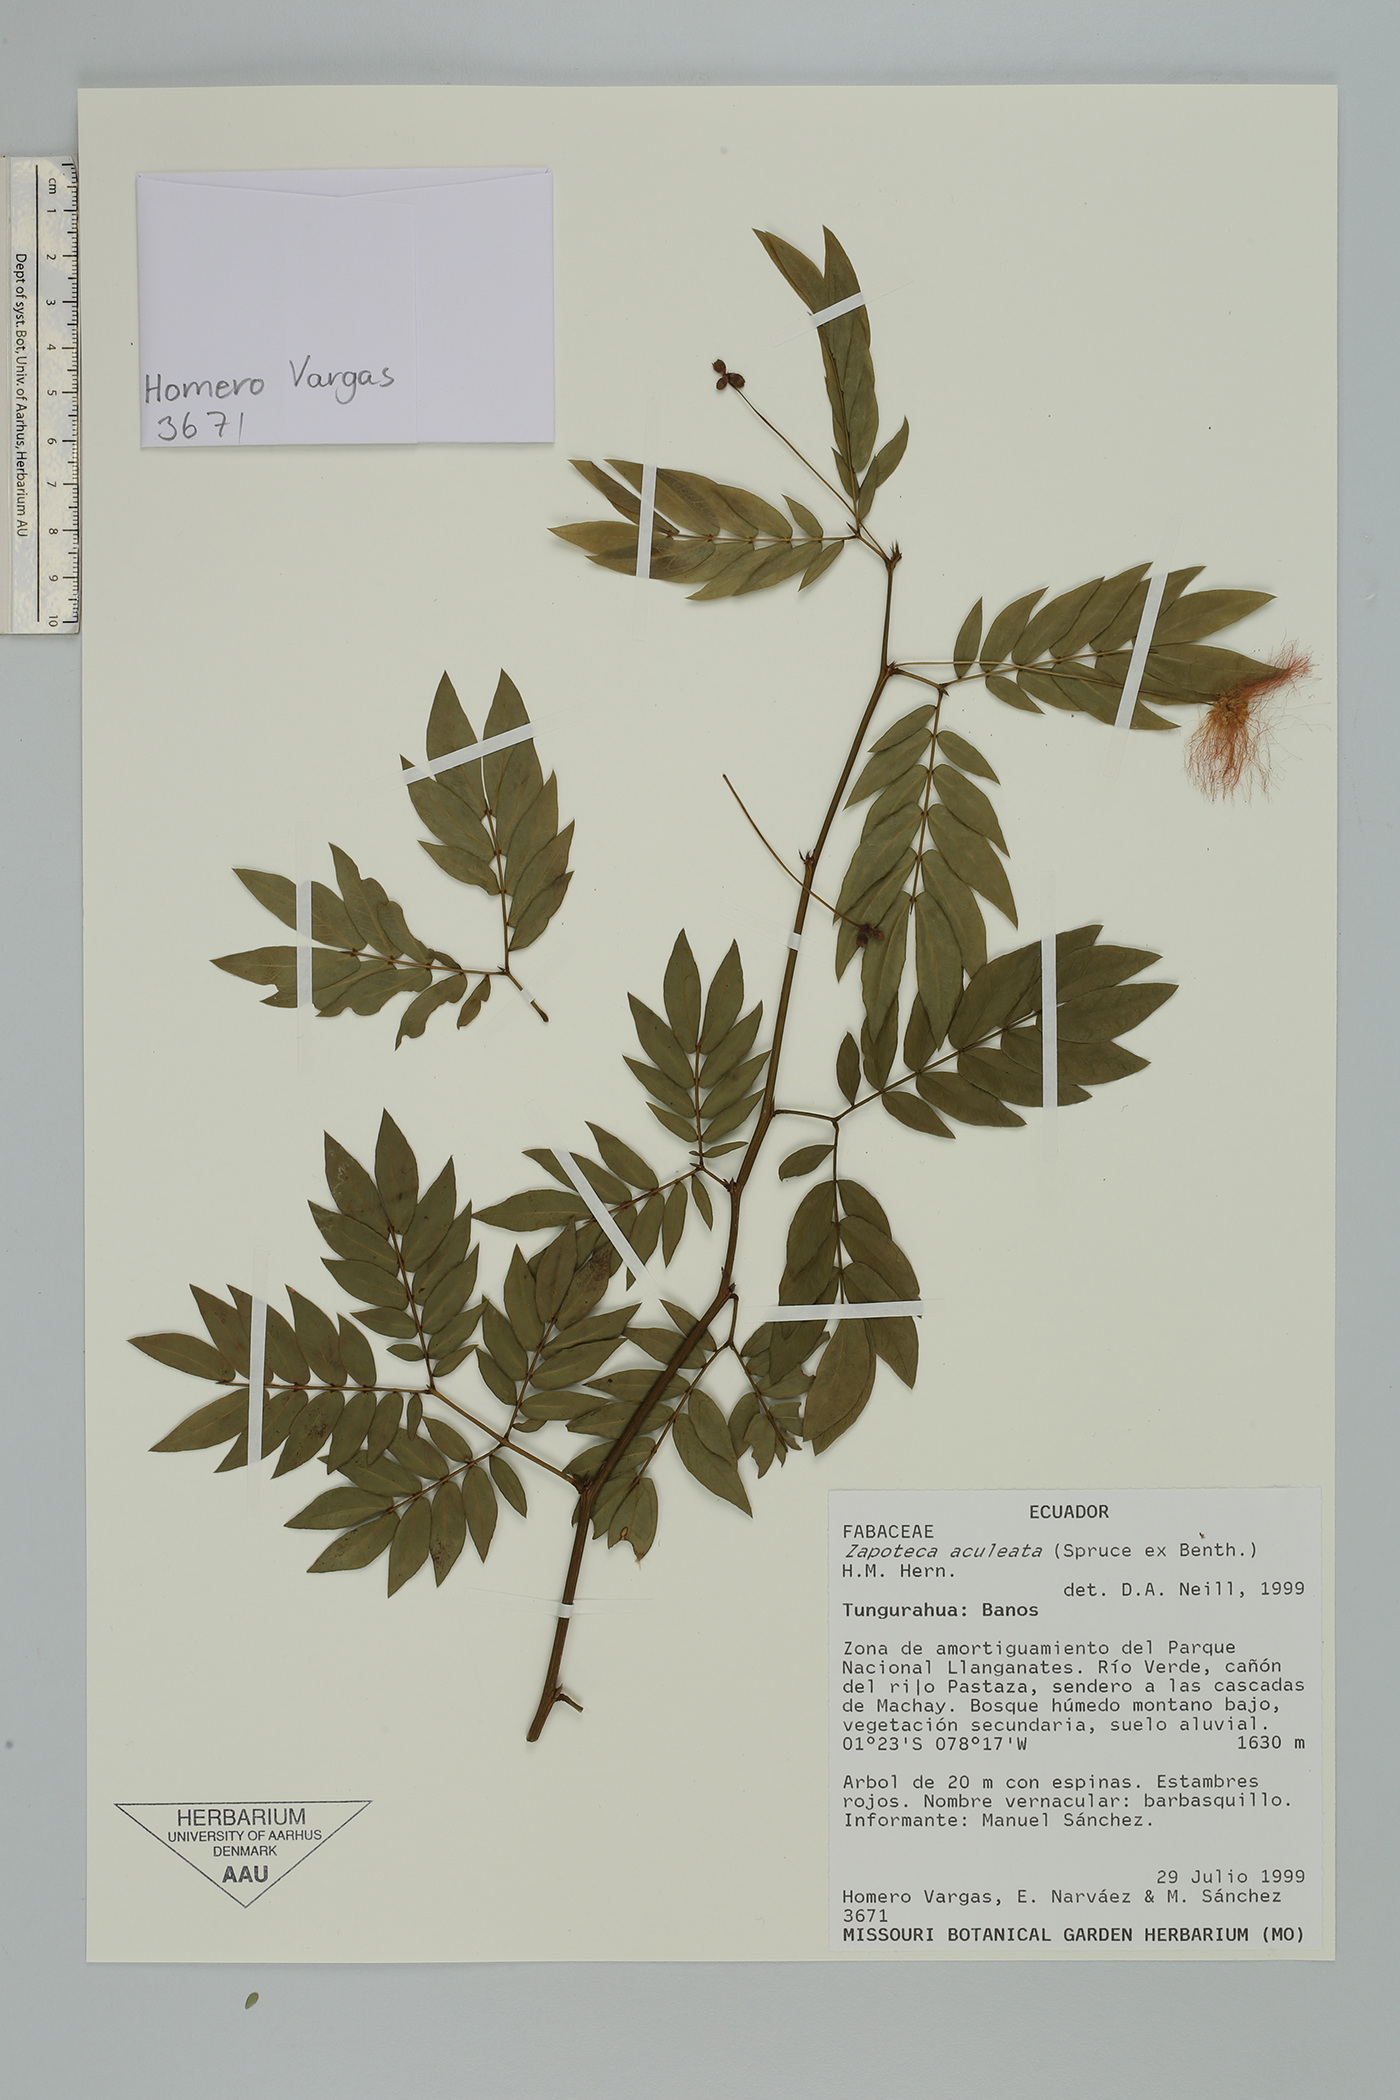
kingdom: Plantae
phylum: Tracheophyta
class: Magnoliopsida
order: Fabales
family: Fabaceae
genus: Zapoteca
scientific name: Zapoteca aculeata
